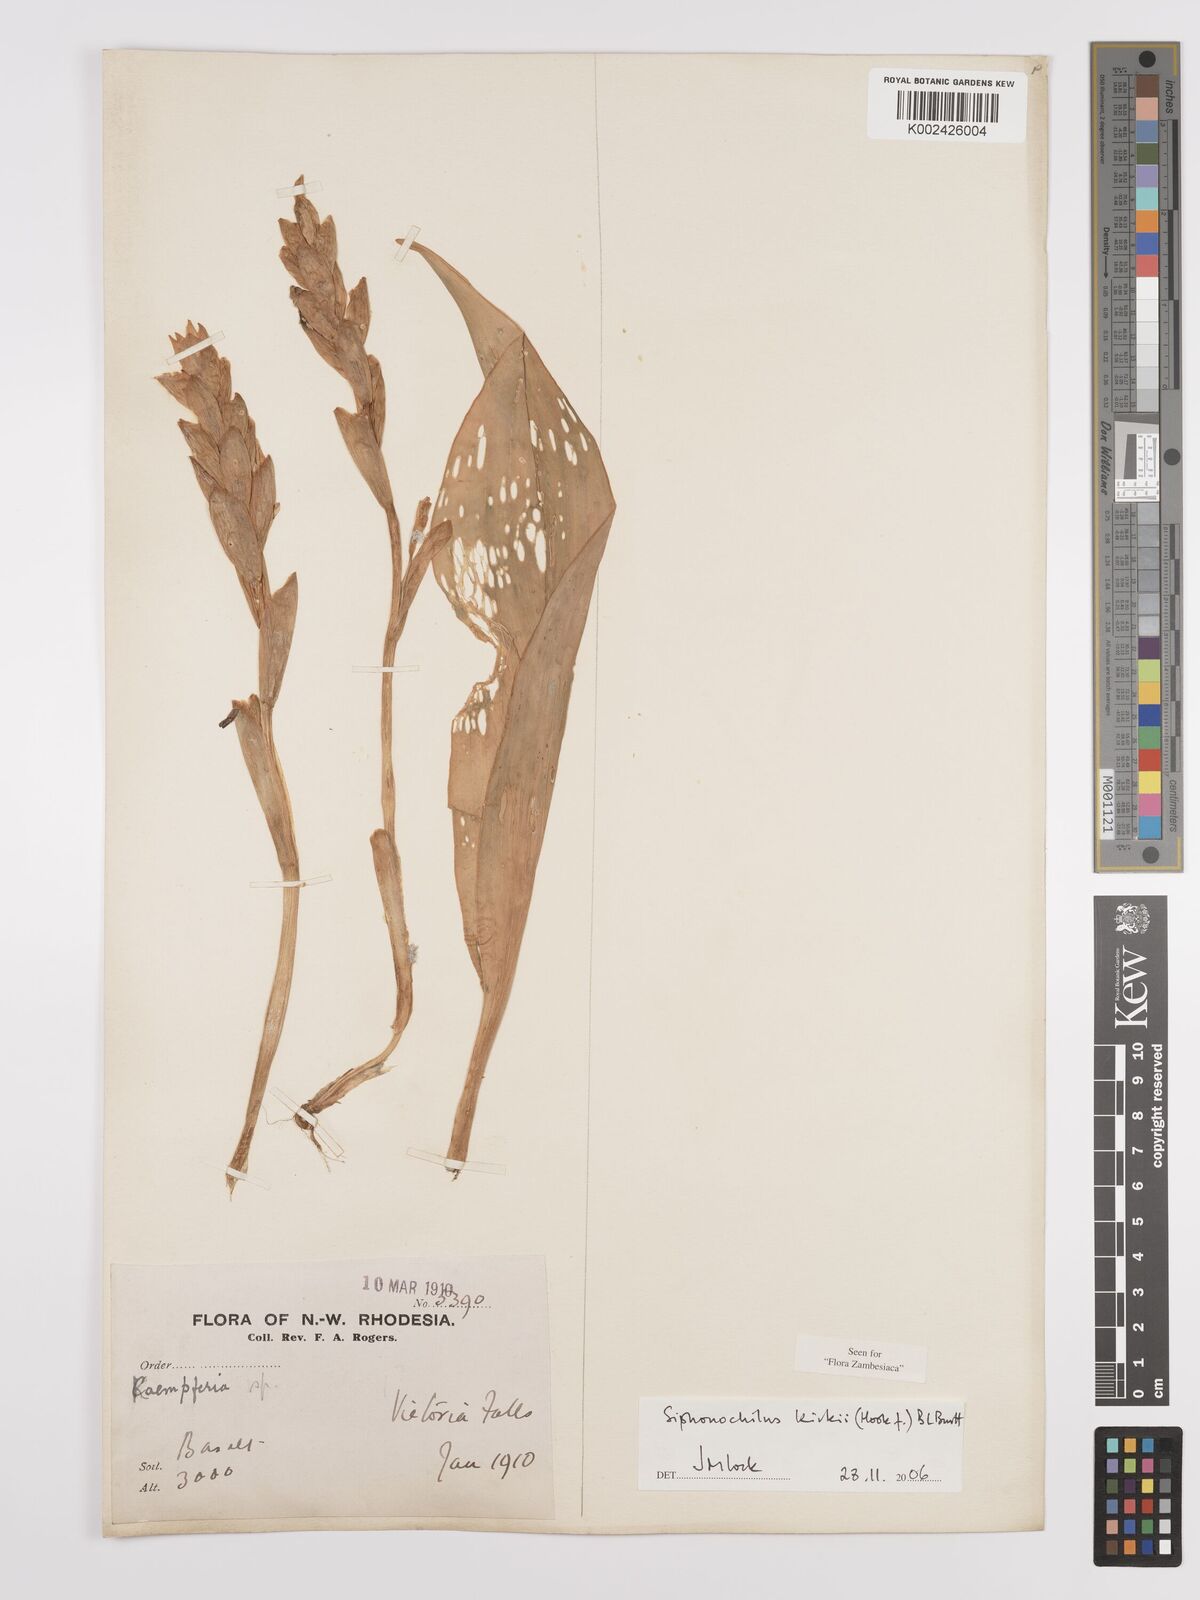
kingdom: Plantae
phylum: Tracheophyta
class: Liliopsida
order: Zingiberales
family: Zingiberaceae
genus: Siphonochilus
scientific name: Siphonochilus kirkii
